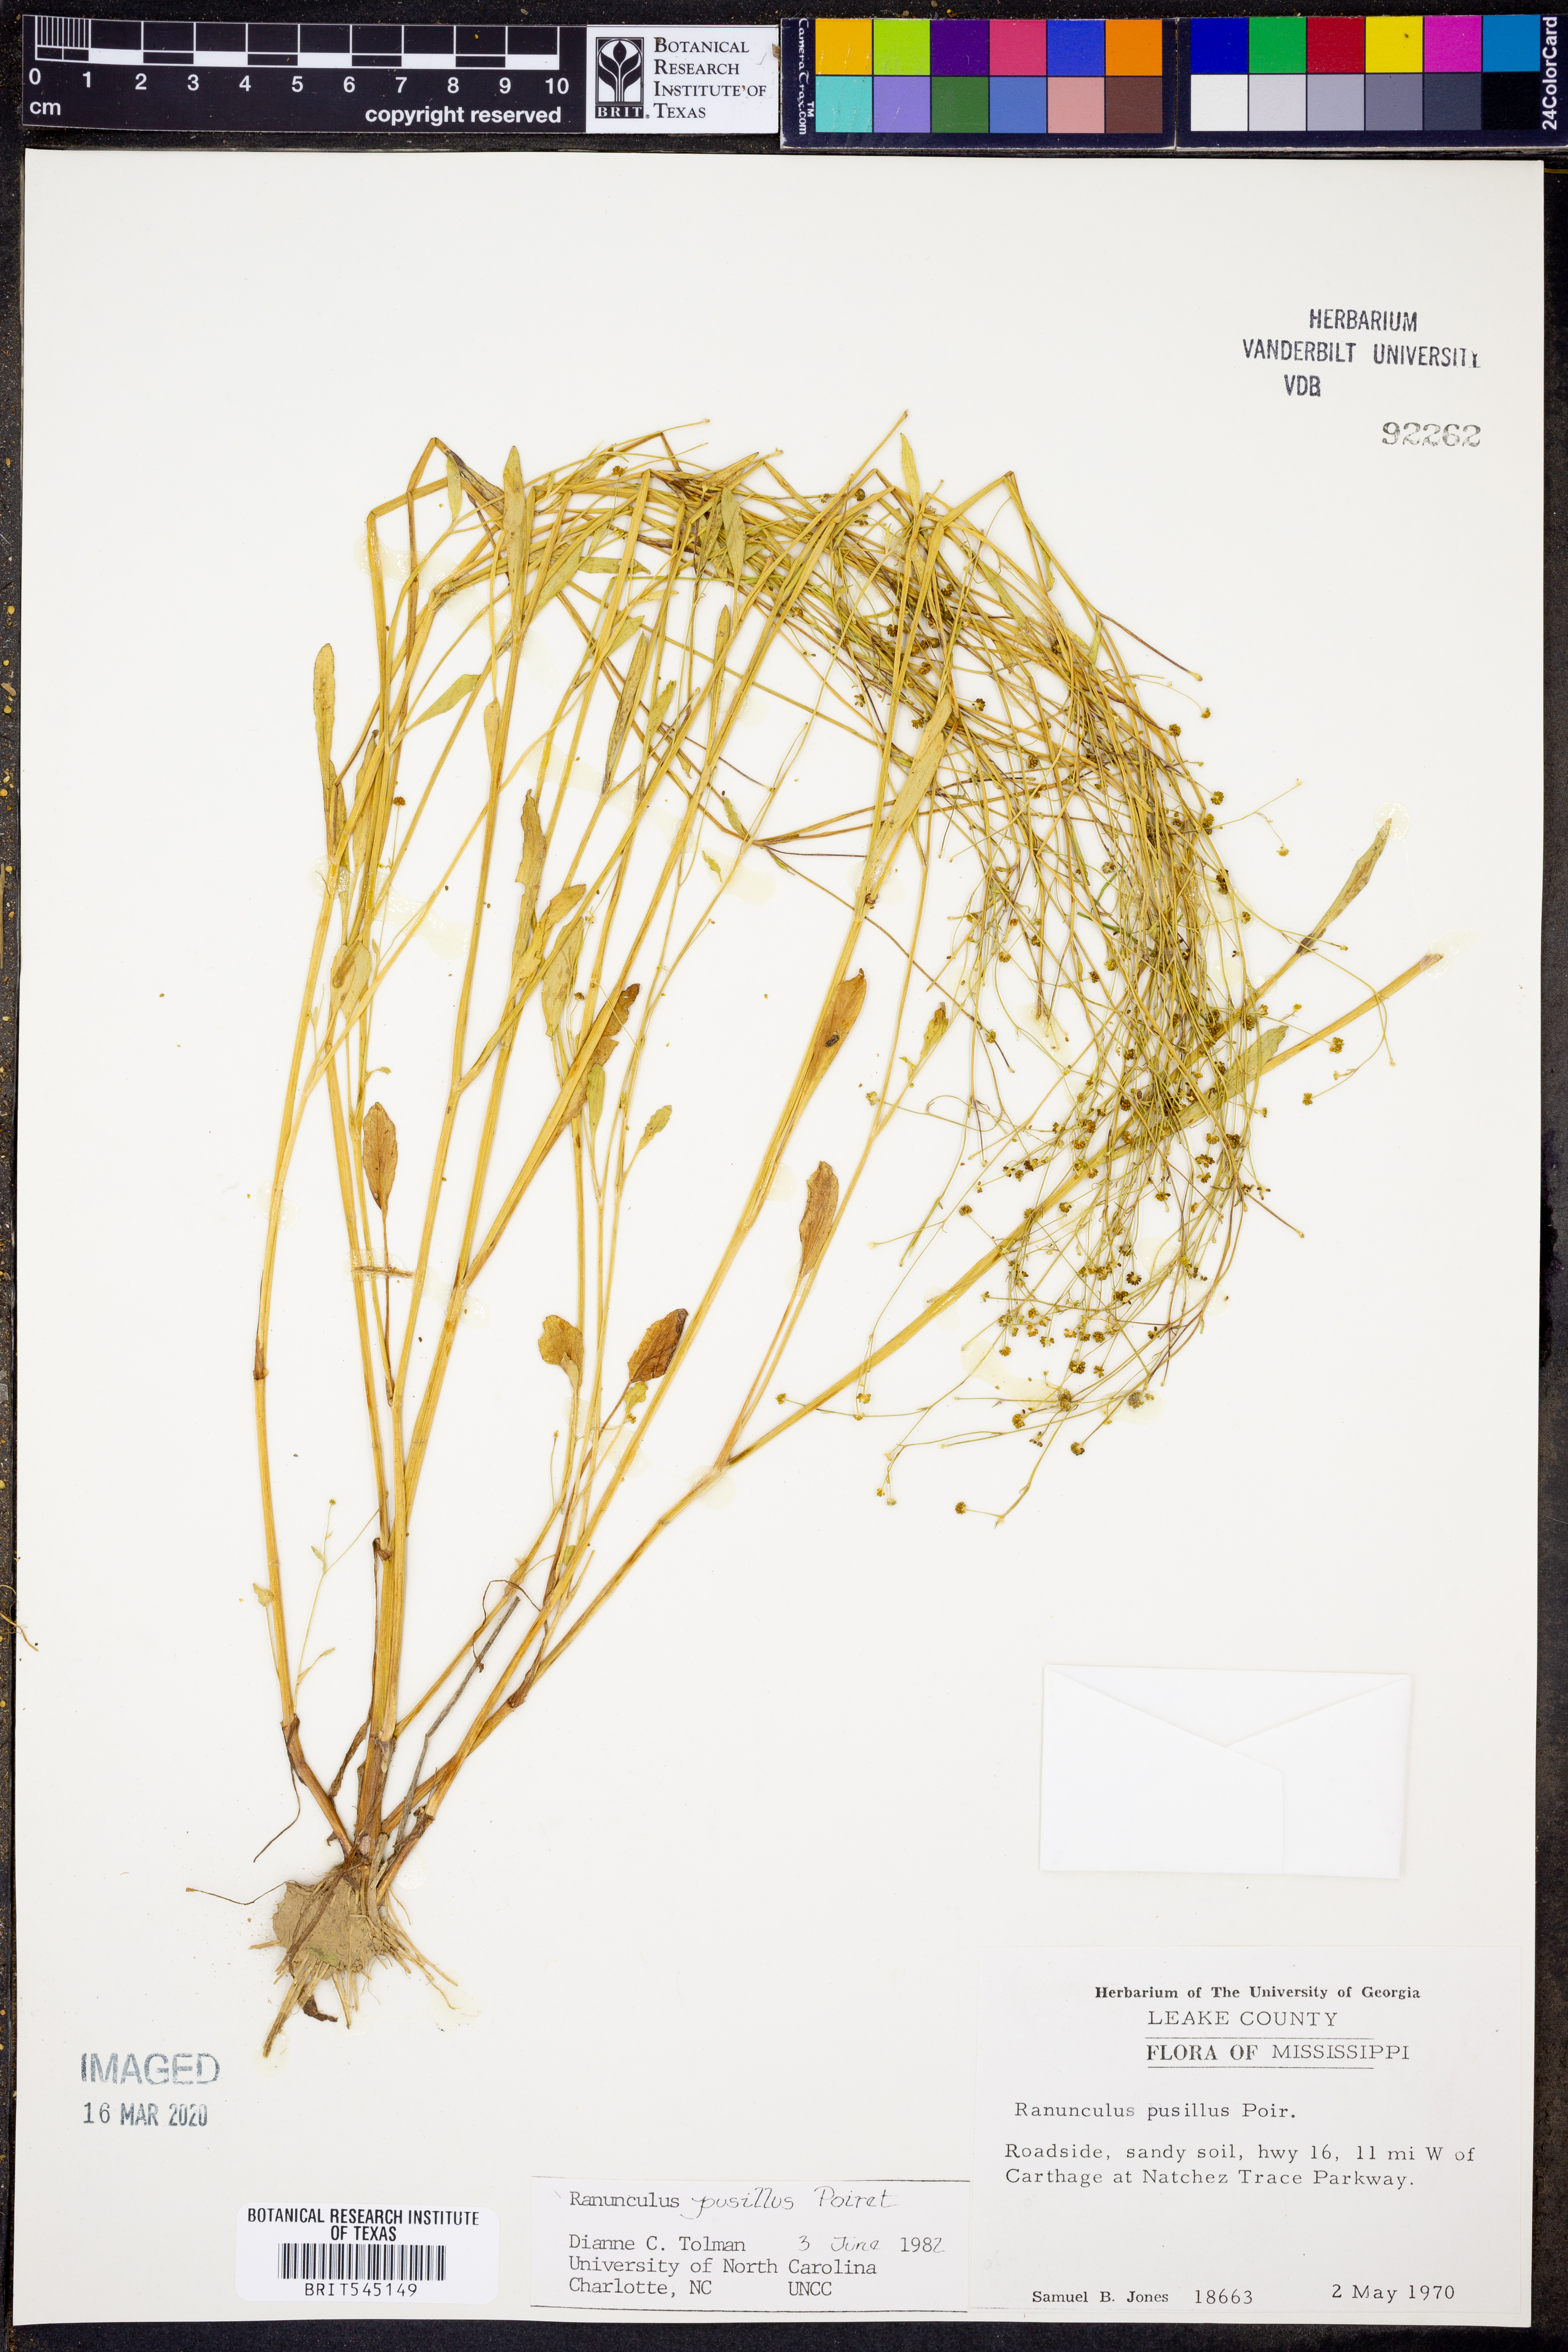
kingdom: Plantae
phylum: Tracheophyta
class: Magnoliopsida
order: Ranunculales
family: Ranunculaceae
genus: Ranunculus
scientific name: Ranunculus pusillus
